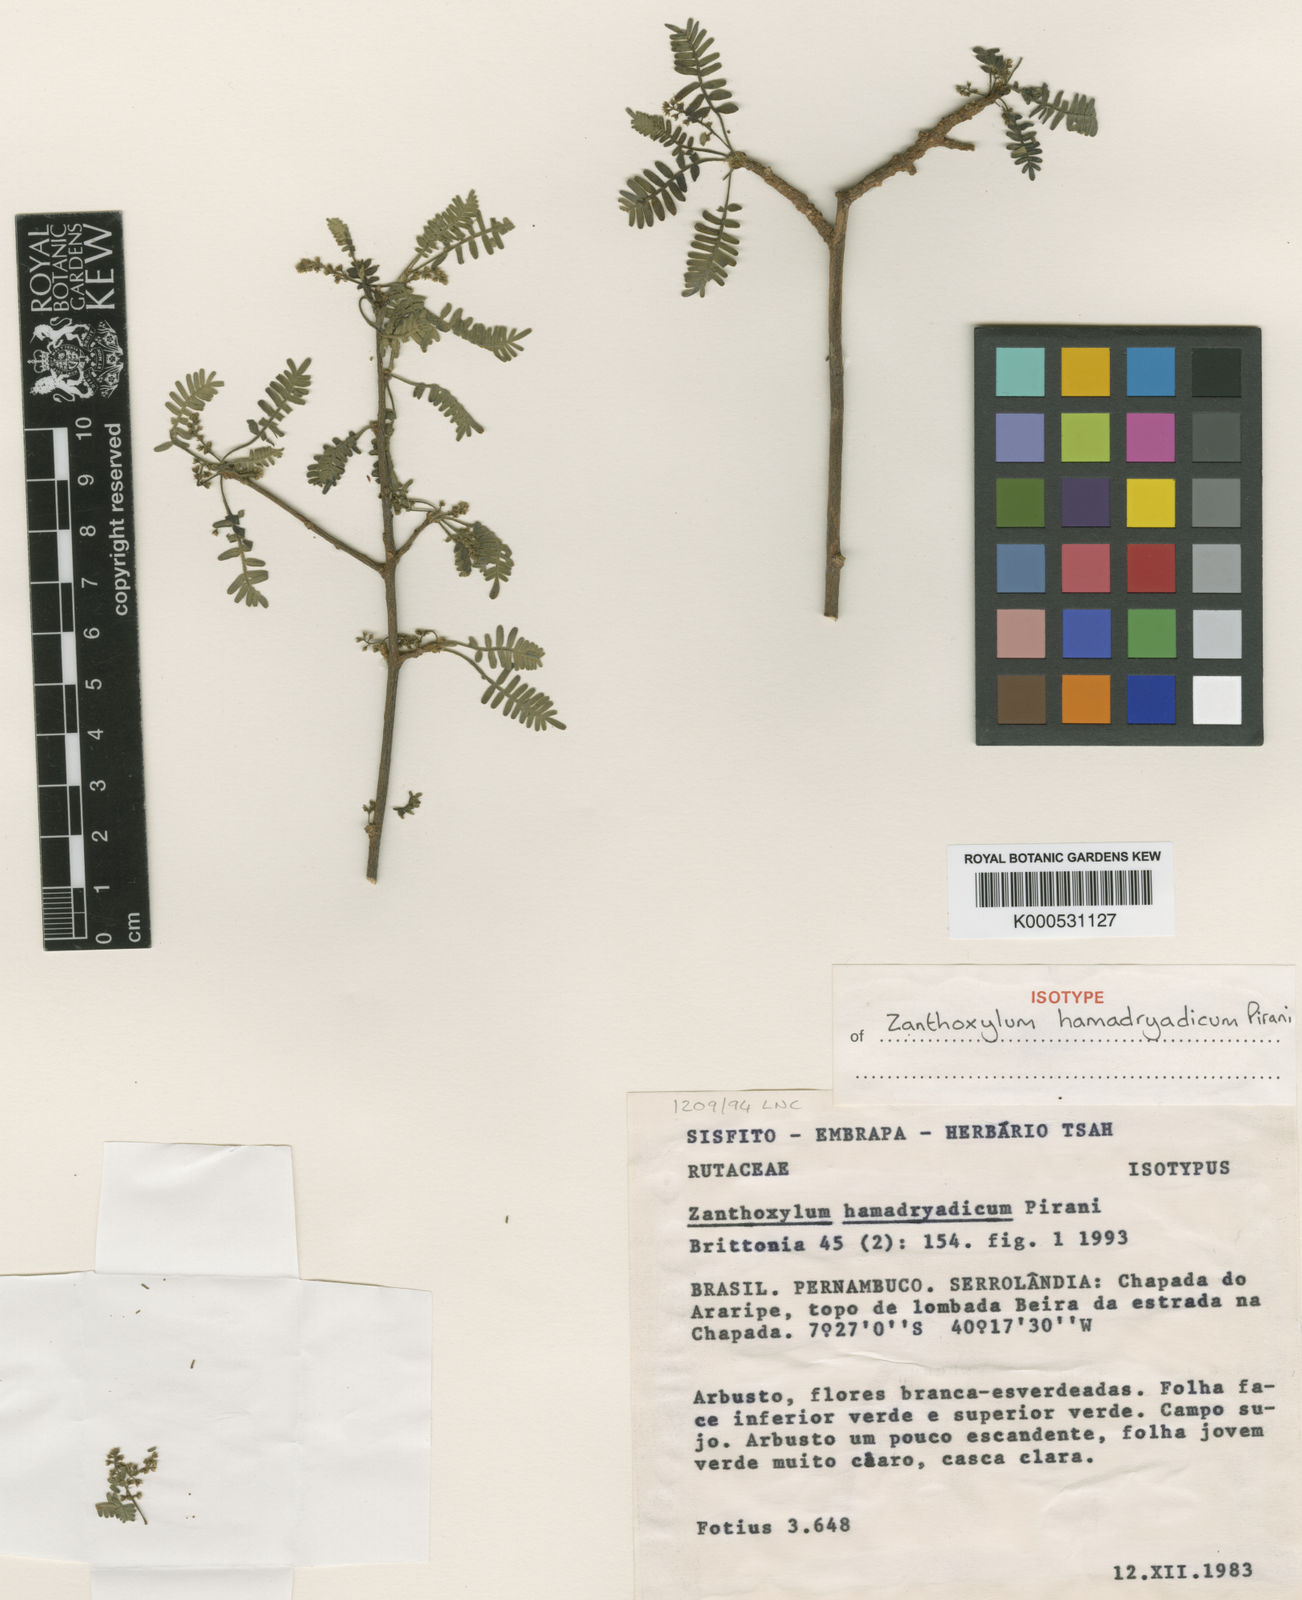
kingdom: Plantae
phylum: Tracheophyta
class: Magnoliopsida
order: Sapindales
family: Rutaceae
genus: Zanthoxylum
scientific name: Zanthoxylum hamadryadicum
